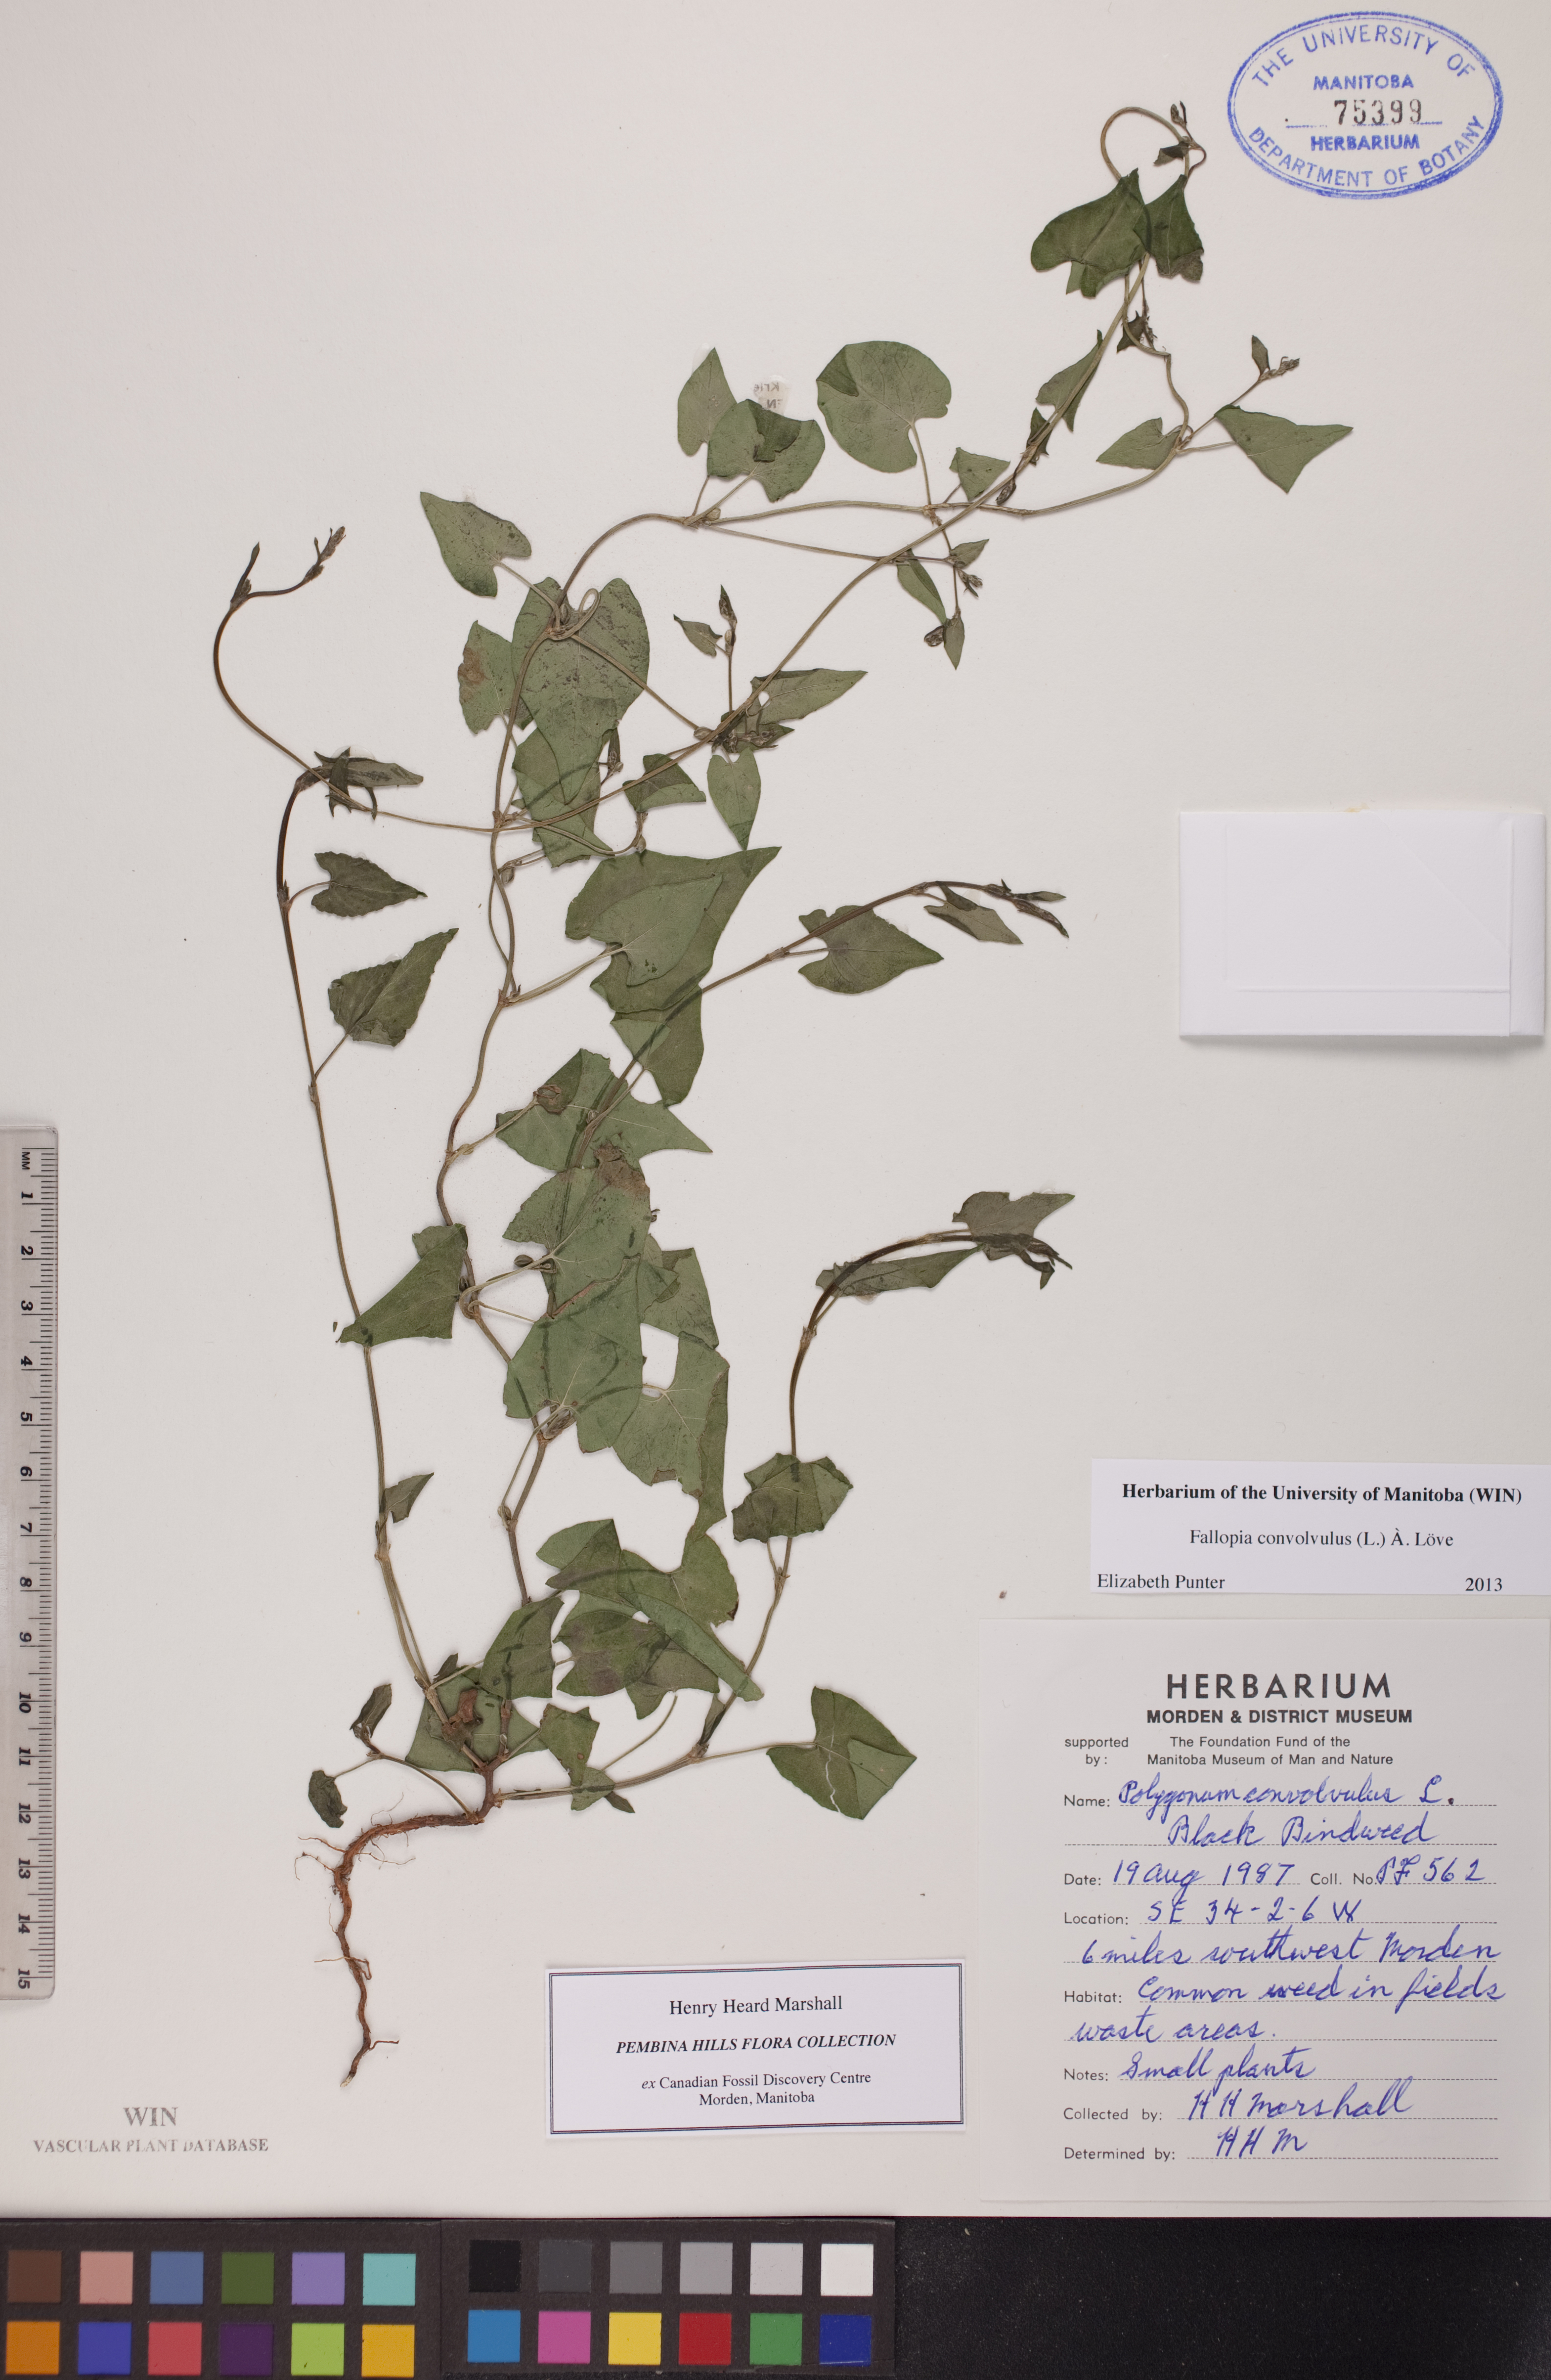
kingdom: Plantae
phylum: Tracheophyta
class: Magnoliopsida
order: Caryophyllales
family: Polygonaceae
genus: Fallopia
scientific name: Fallopia convolvulus
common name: Black bindweed
